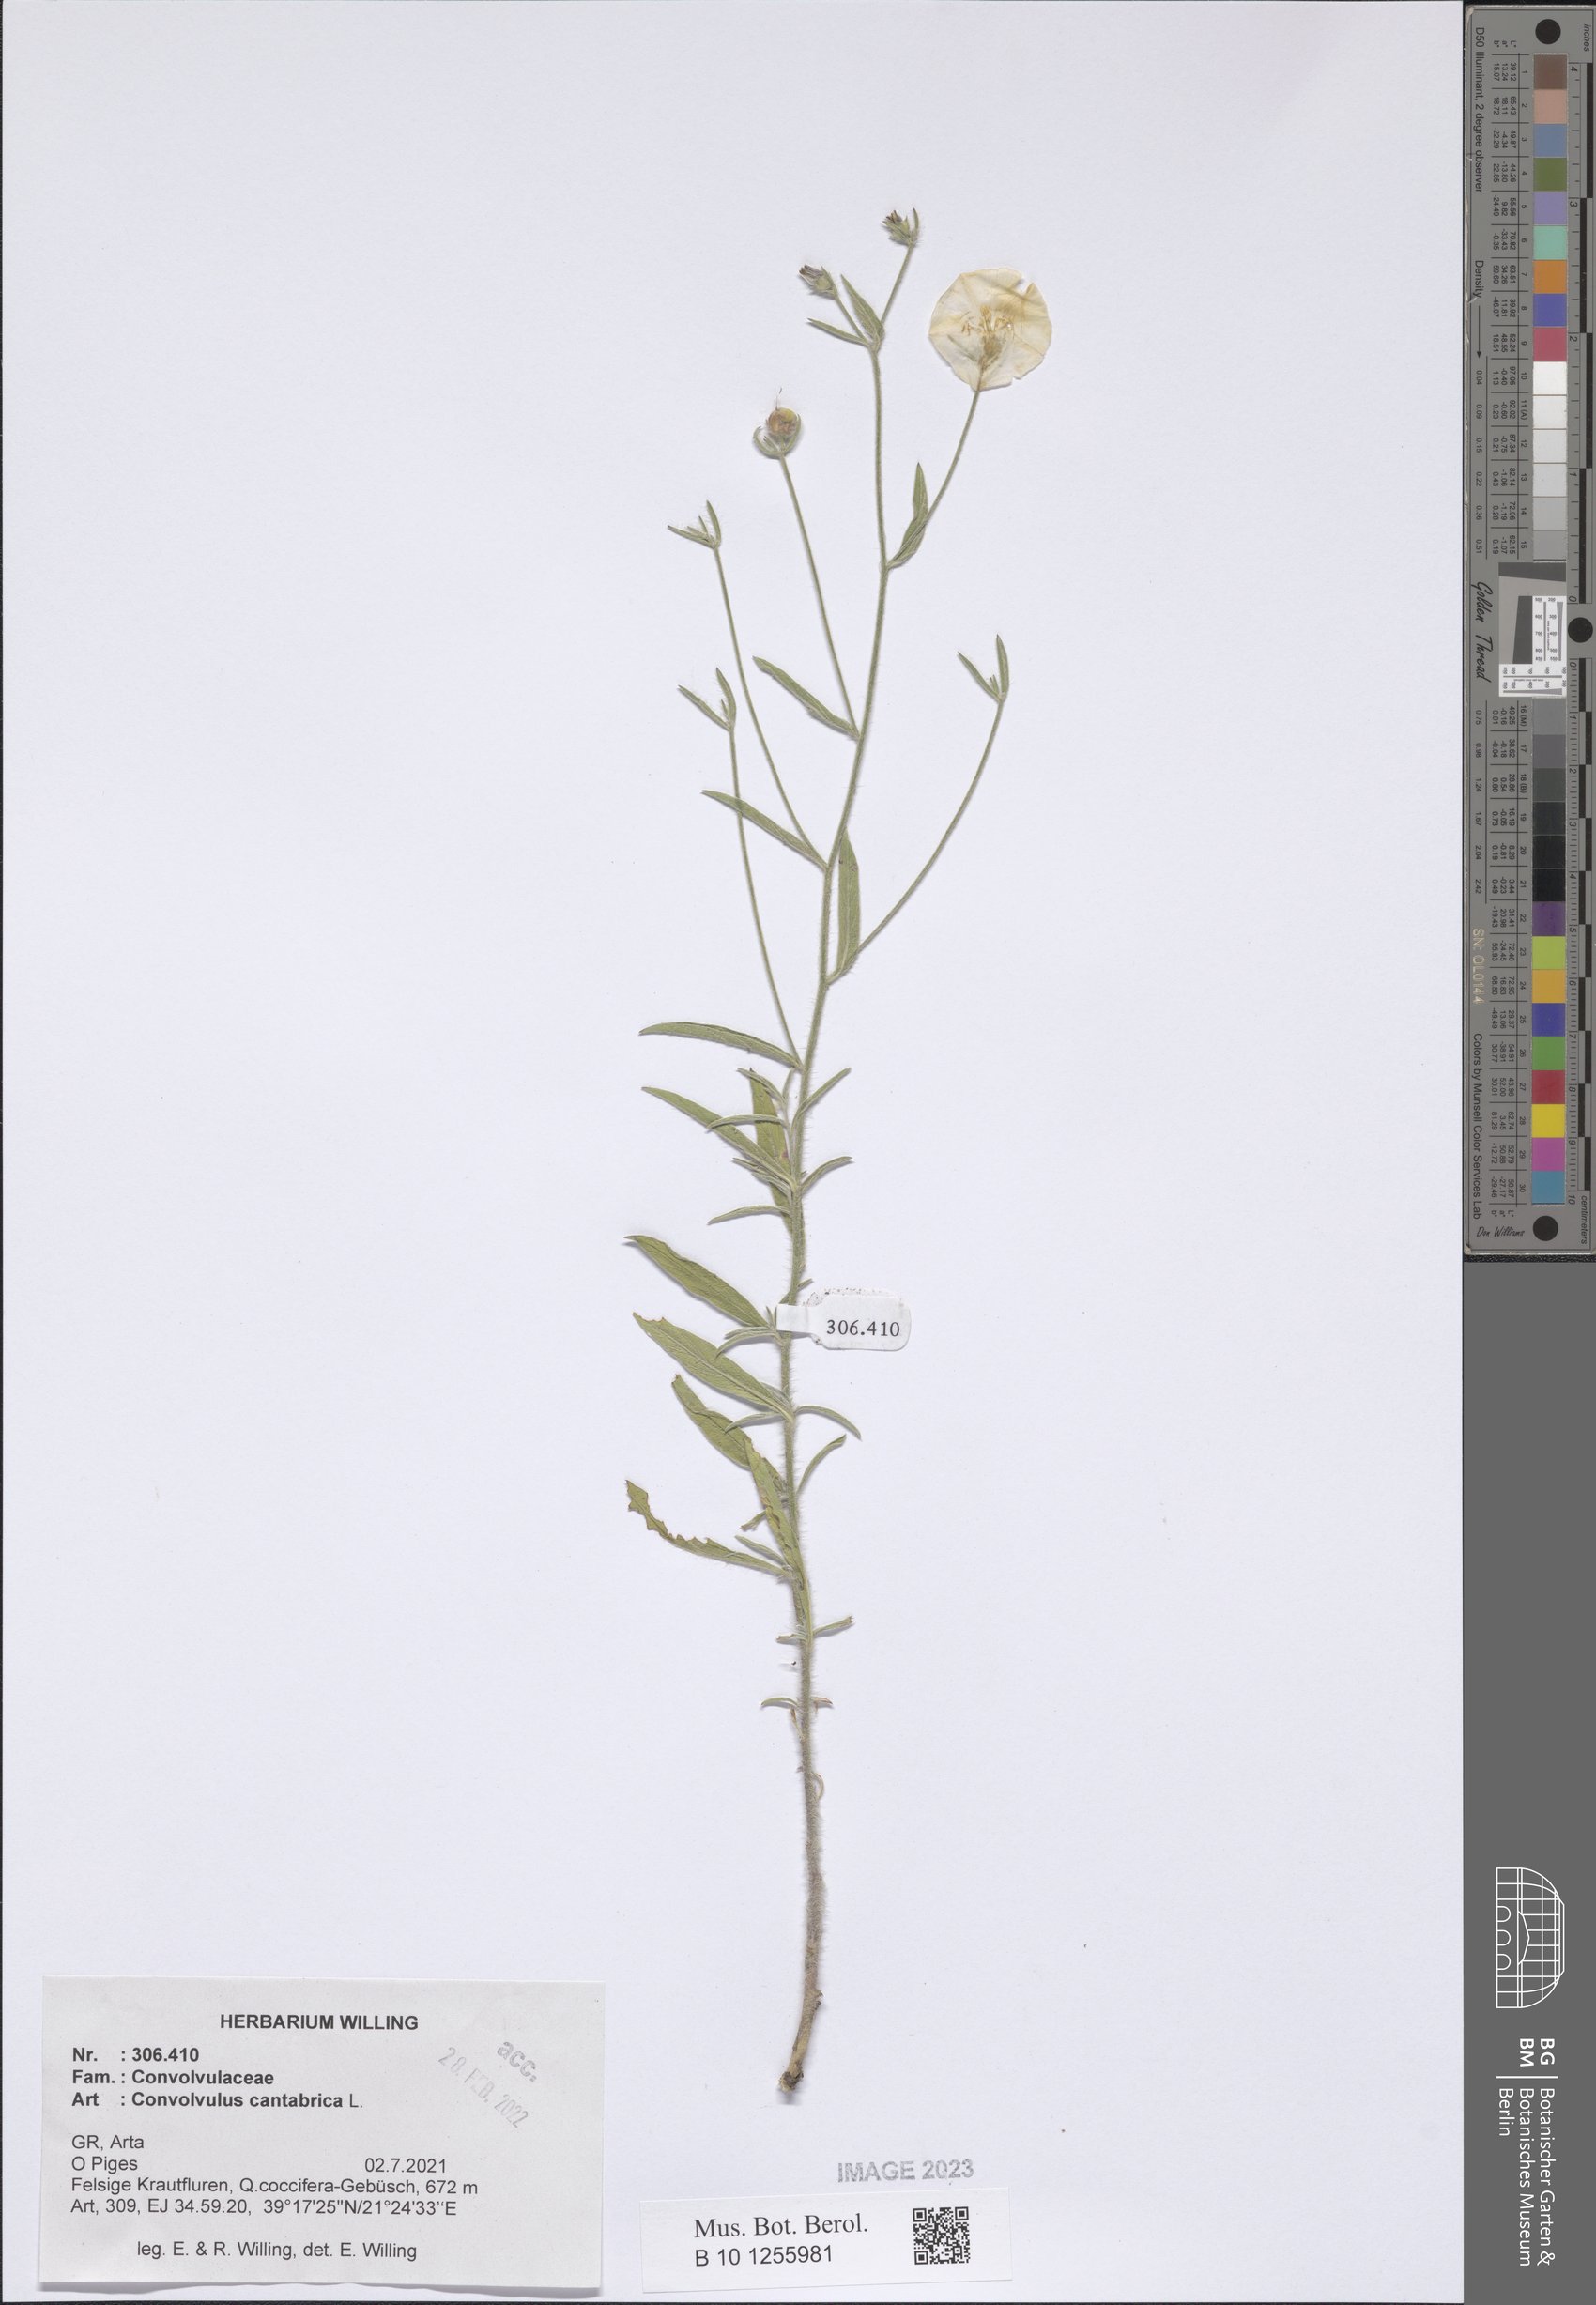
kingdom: Plantae
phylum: Tracheophyta
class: Magnoliopsida
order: Solanales
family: Convolvulaceae
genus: Convolvulus
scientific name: Convolvulus cantabrica
